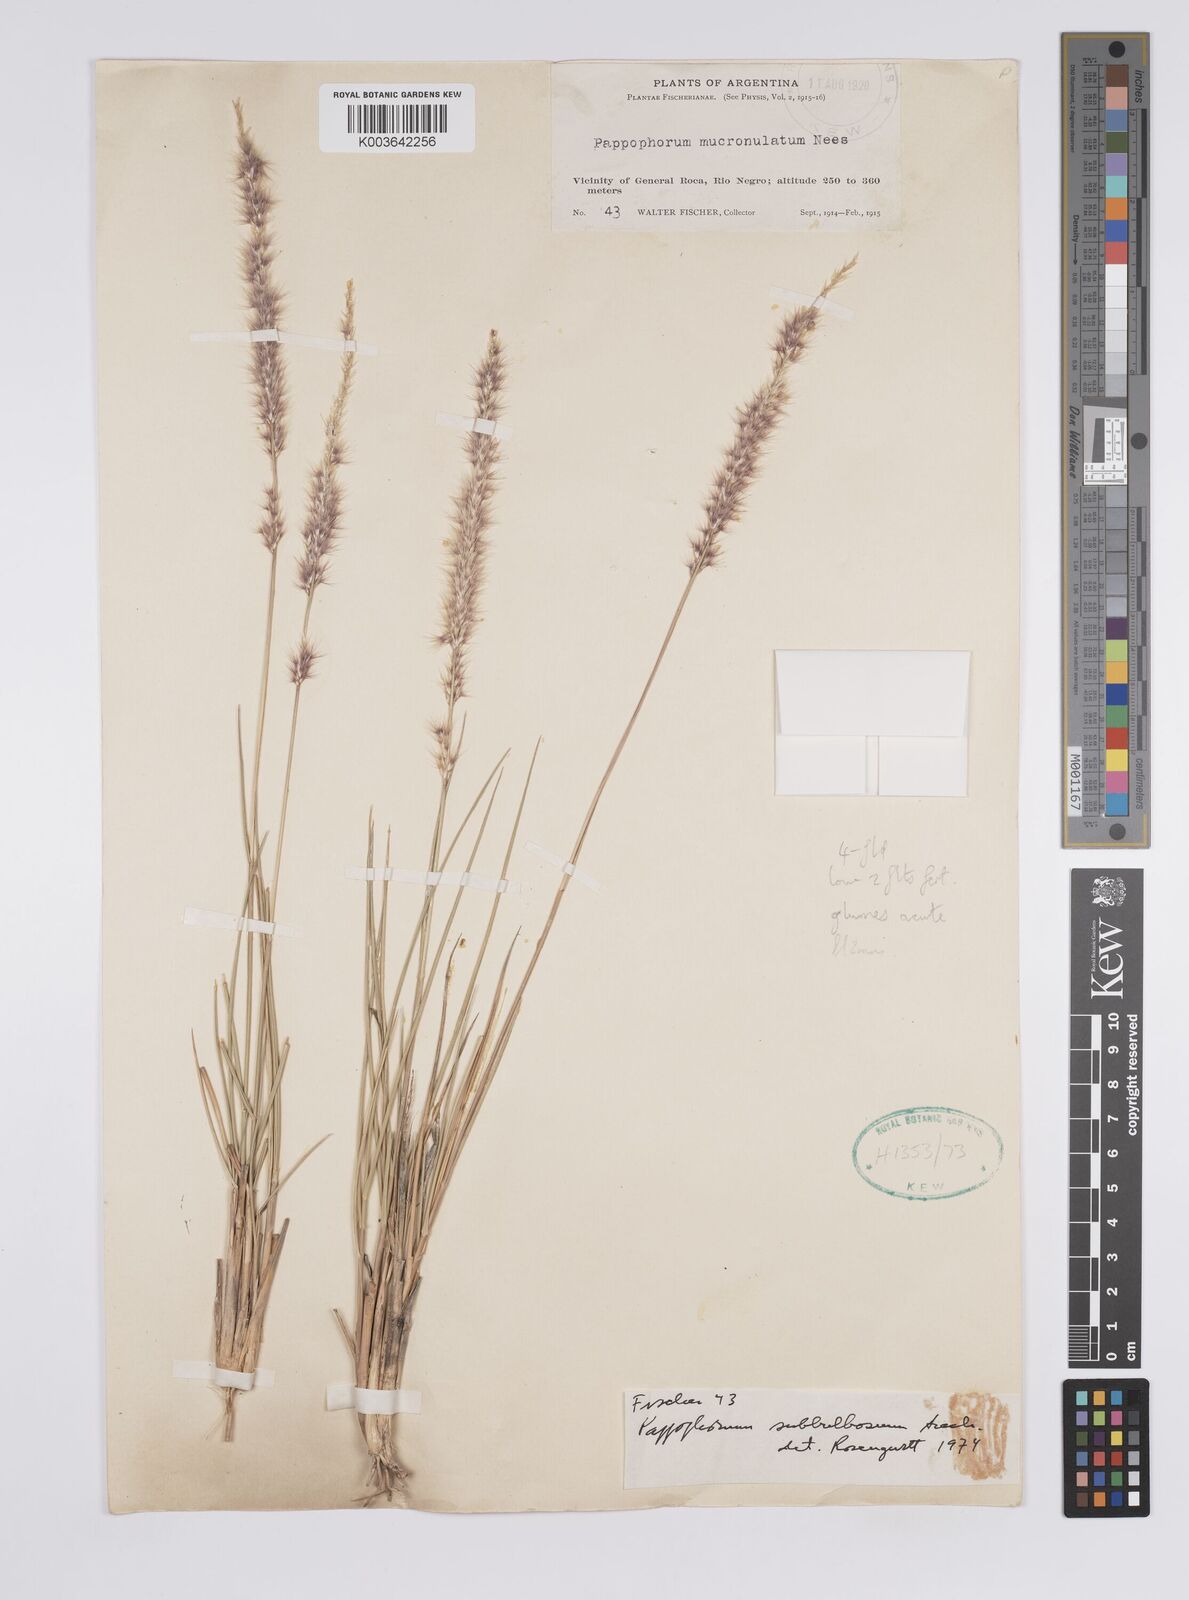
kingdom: Plantae
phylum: Tracheophyta
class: Liliopsida
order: Poales
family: Poaceae
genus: Pappophorum
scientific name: Pappophorum caespitosum
